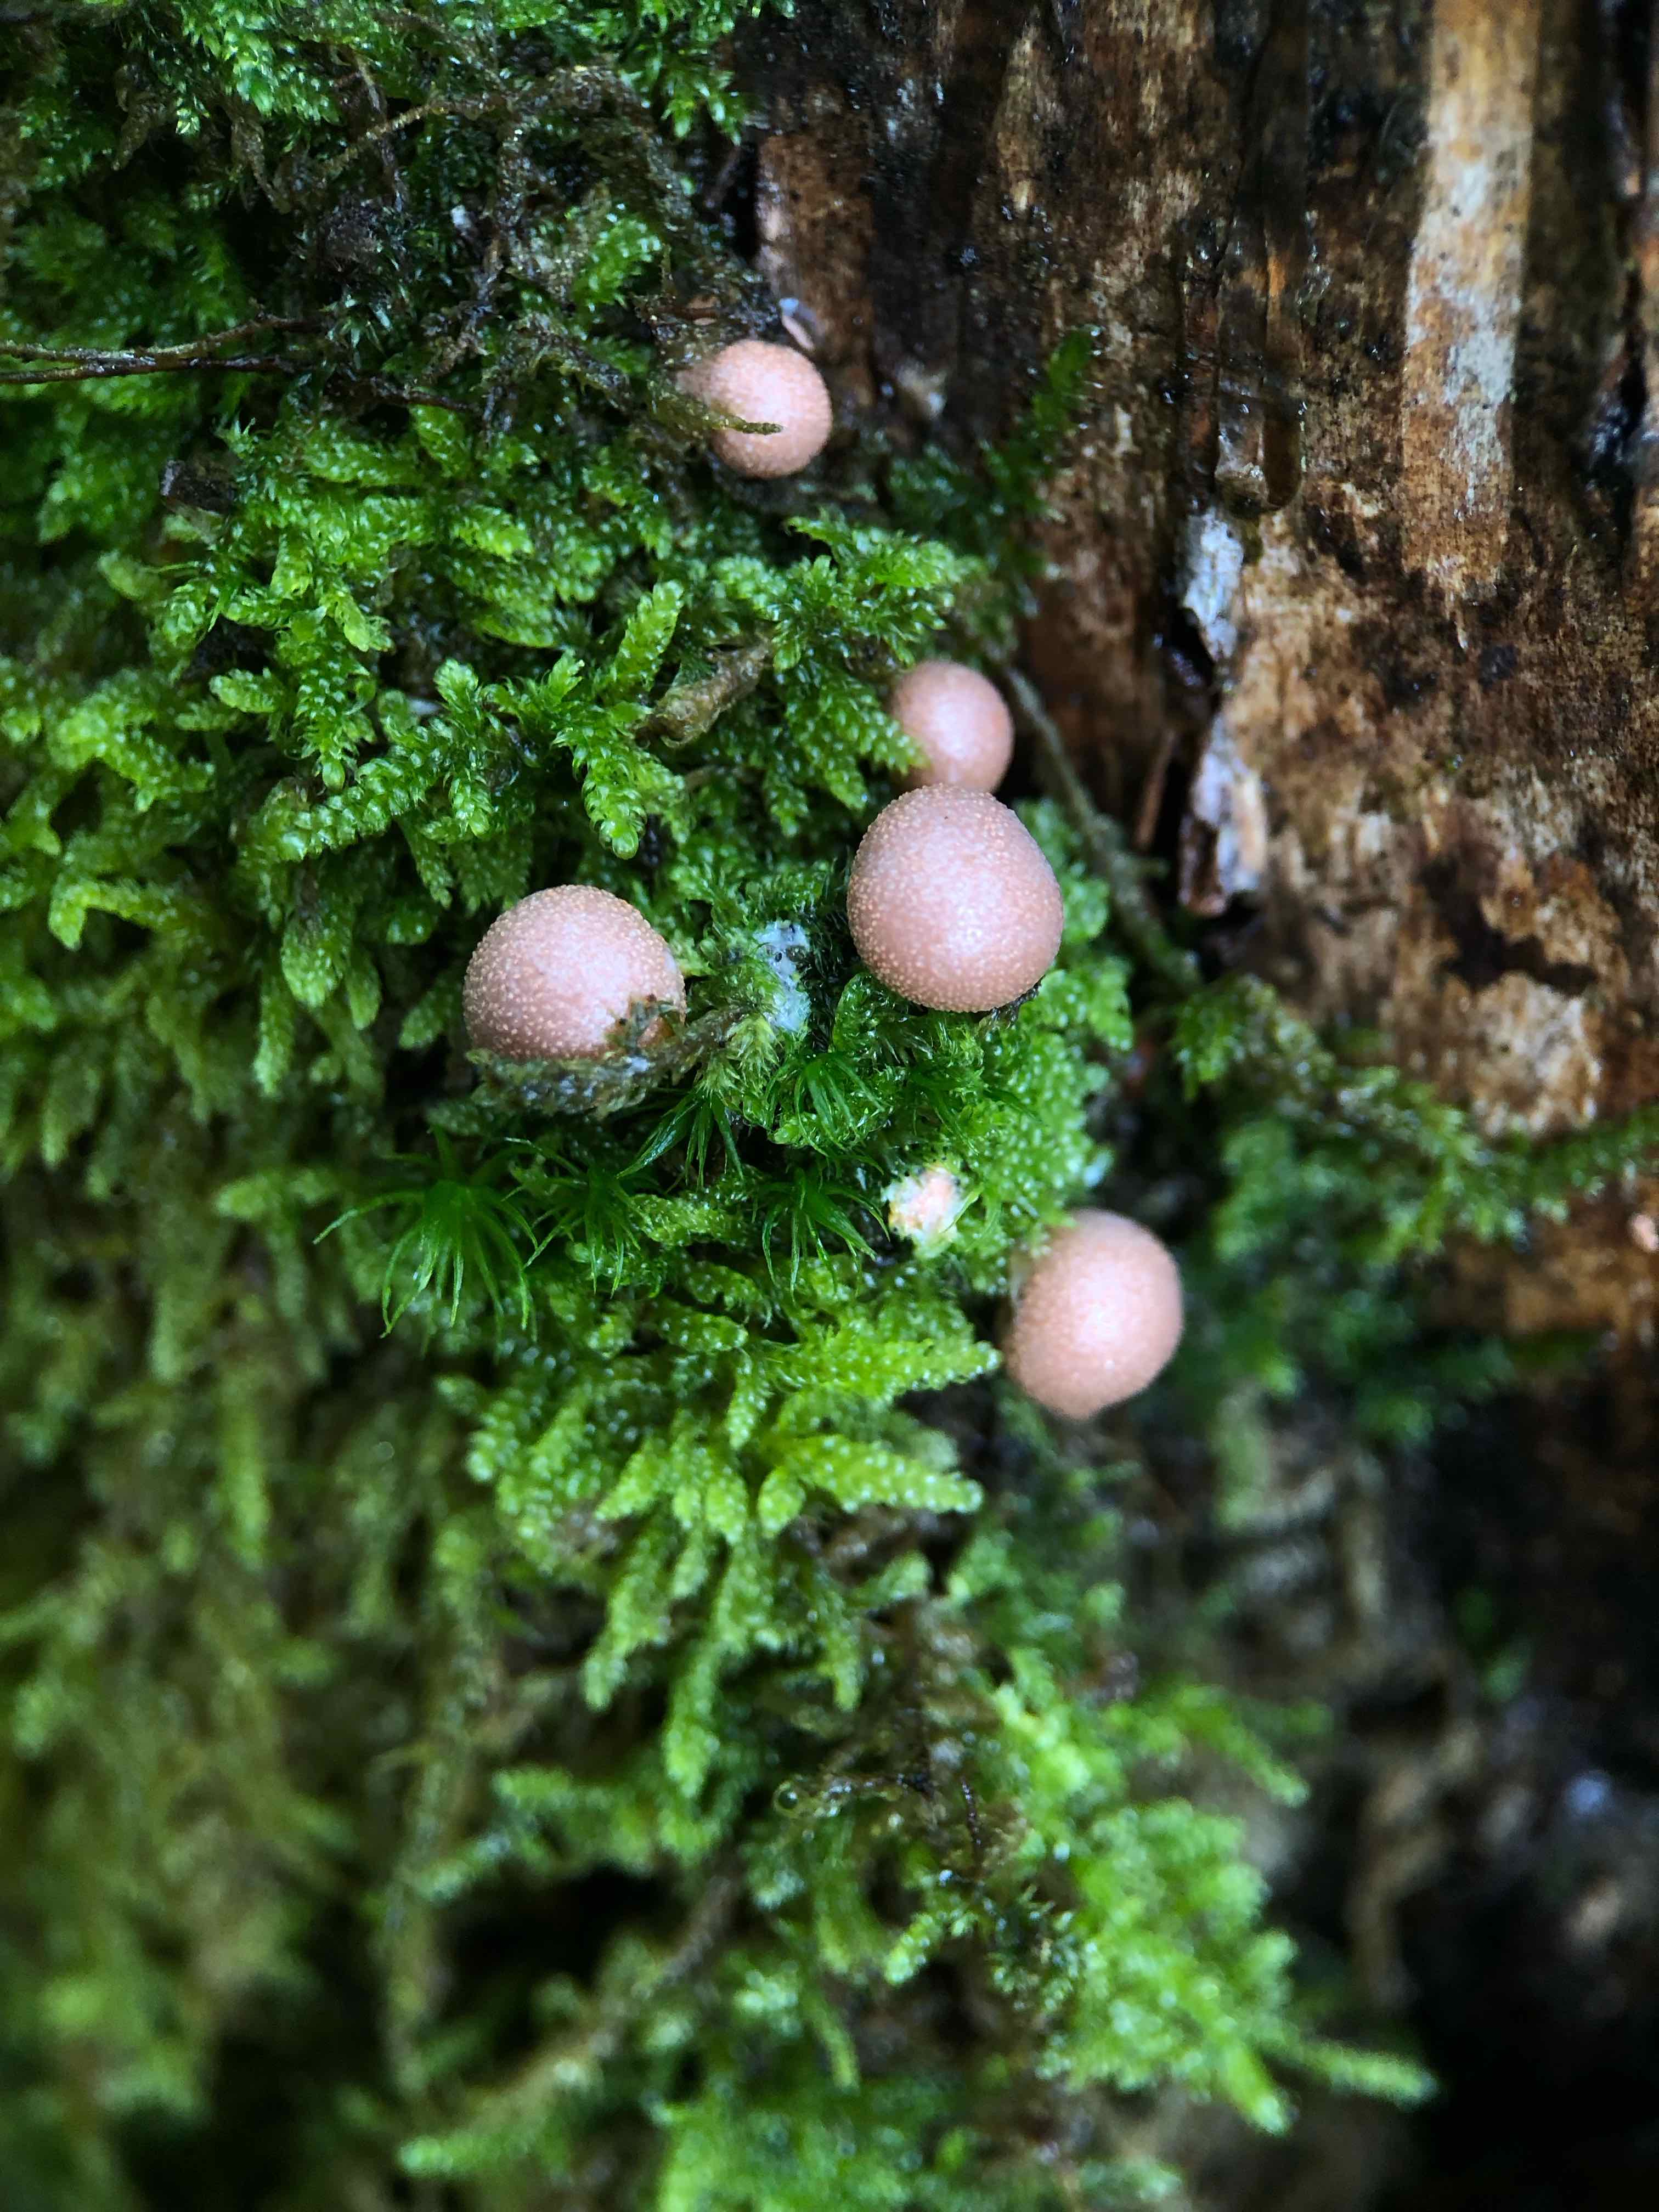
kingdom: Protozoa
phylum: Mycetozoa
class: Myxomycetes
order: Cribrariales
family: Tubiferaceae
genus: Lycogala
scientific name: Lycogala epidendrum
